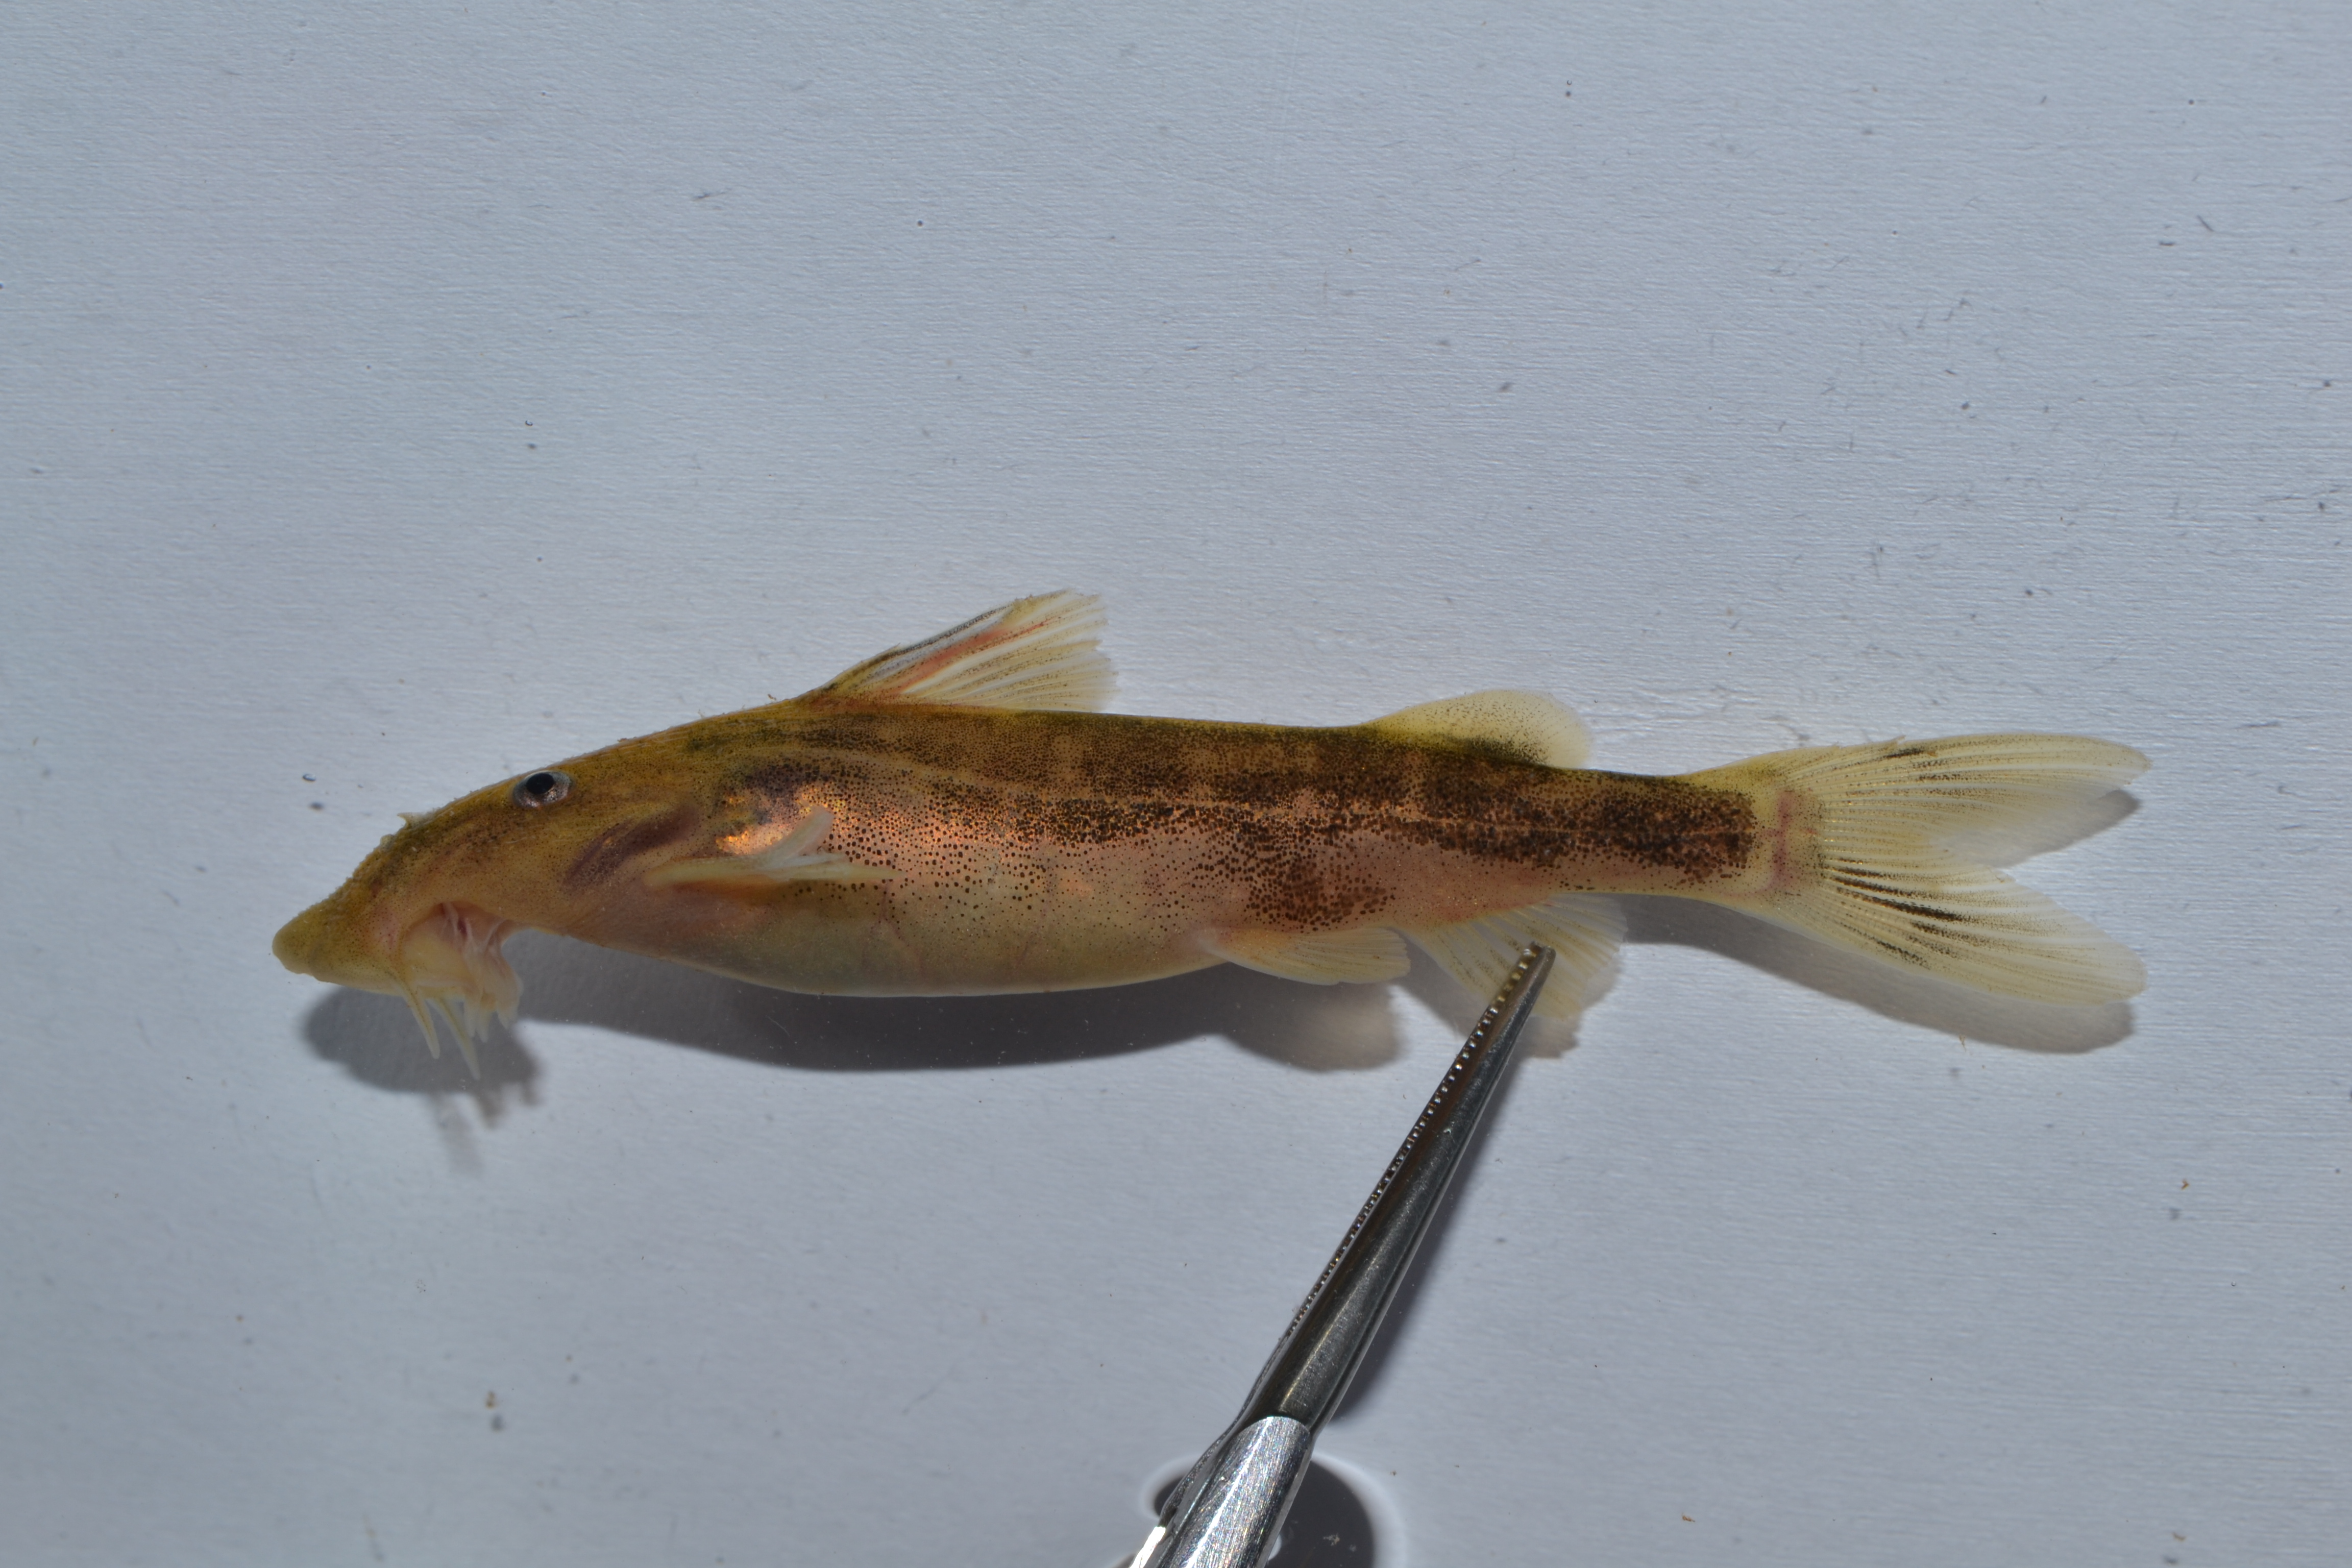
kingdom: Animalia
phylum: Chordata
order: Siluriformes
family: Mochokidae
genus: Chiloglanis
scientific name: Chiloglanis
